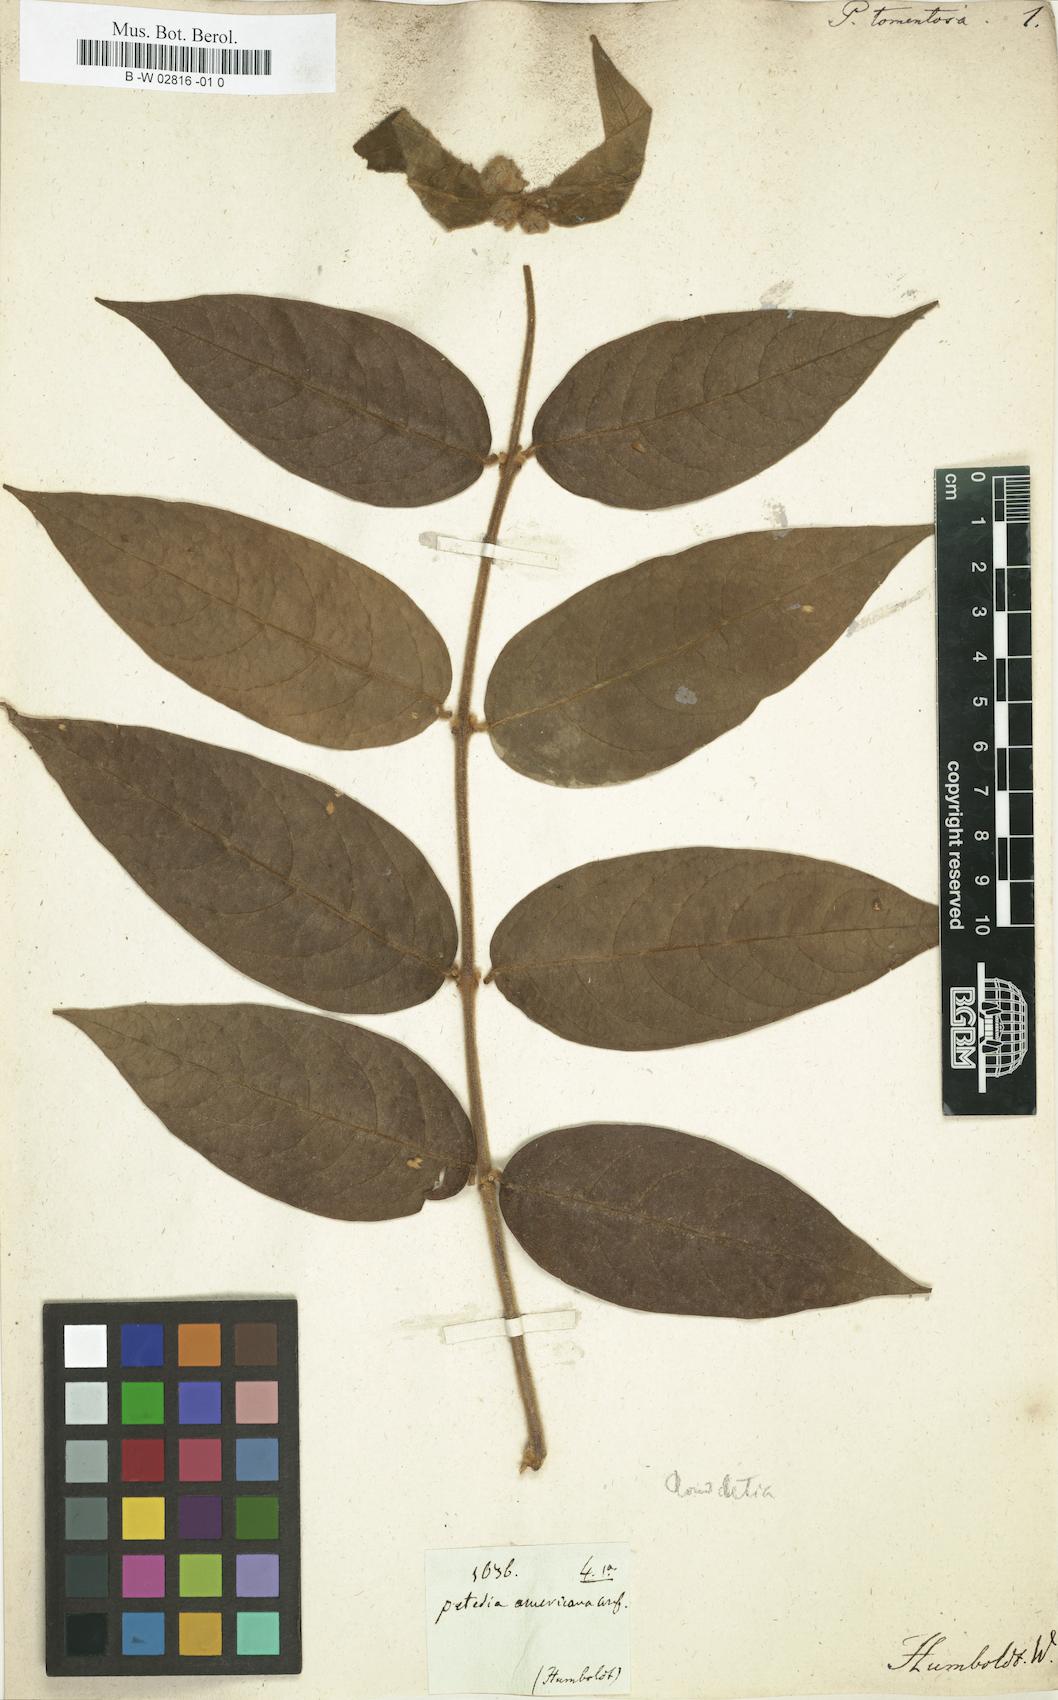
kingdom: Plantae
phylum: Tracheophyta
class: Magnoliopsida
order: Gentianales
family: Rubiaceae
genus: Manettia
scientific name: Manettia tomentosa
